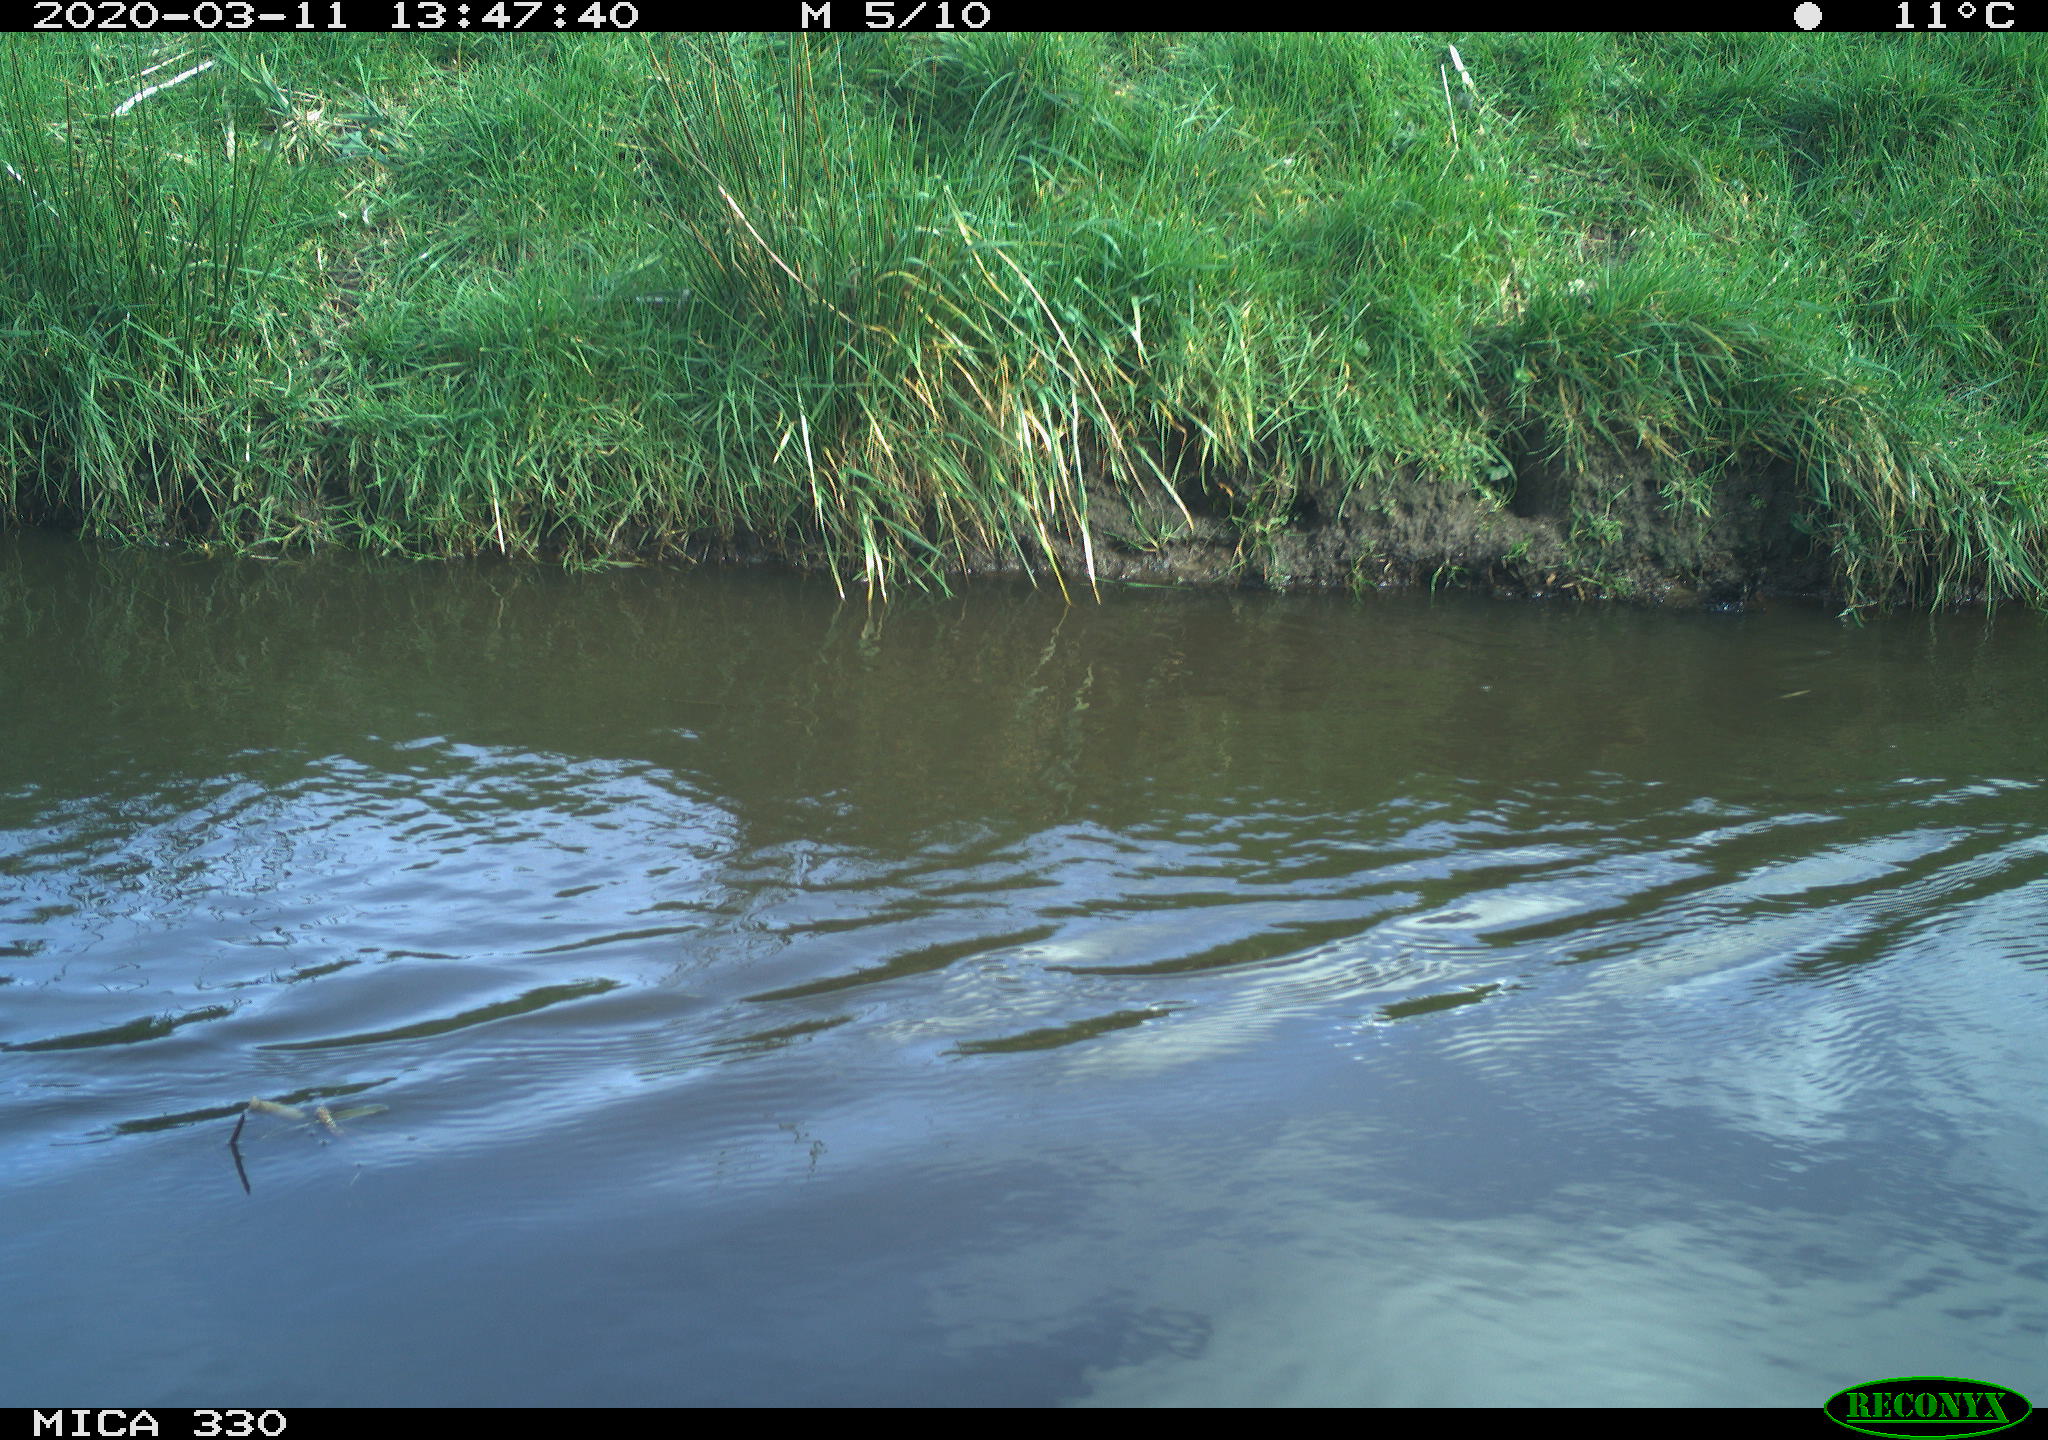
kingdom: Animalia
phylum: Chordata
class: Aves
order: Anseriformes
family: Anatidae
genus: Anas
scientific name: Anas platyrhynchos
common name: Mallard
